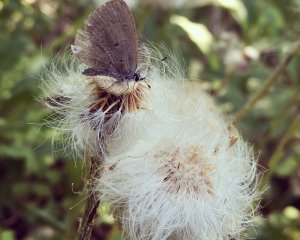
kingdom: Animalia
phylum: Arthropoda
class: Insecta
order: Lepidoptera
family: Lycaenidae
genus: Celastrina
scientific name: Celastrina
